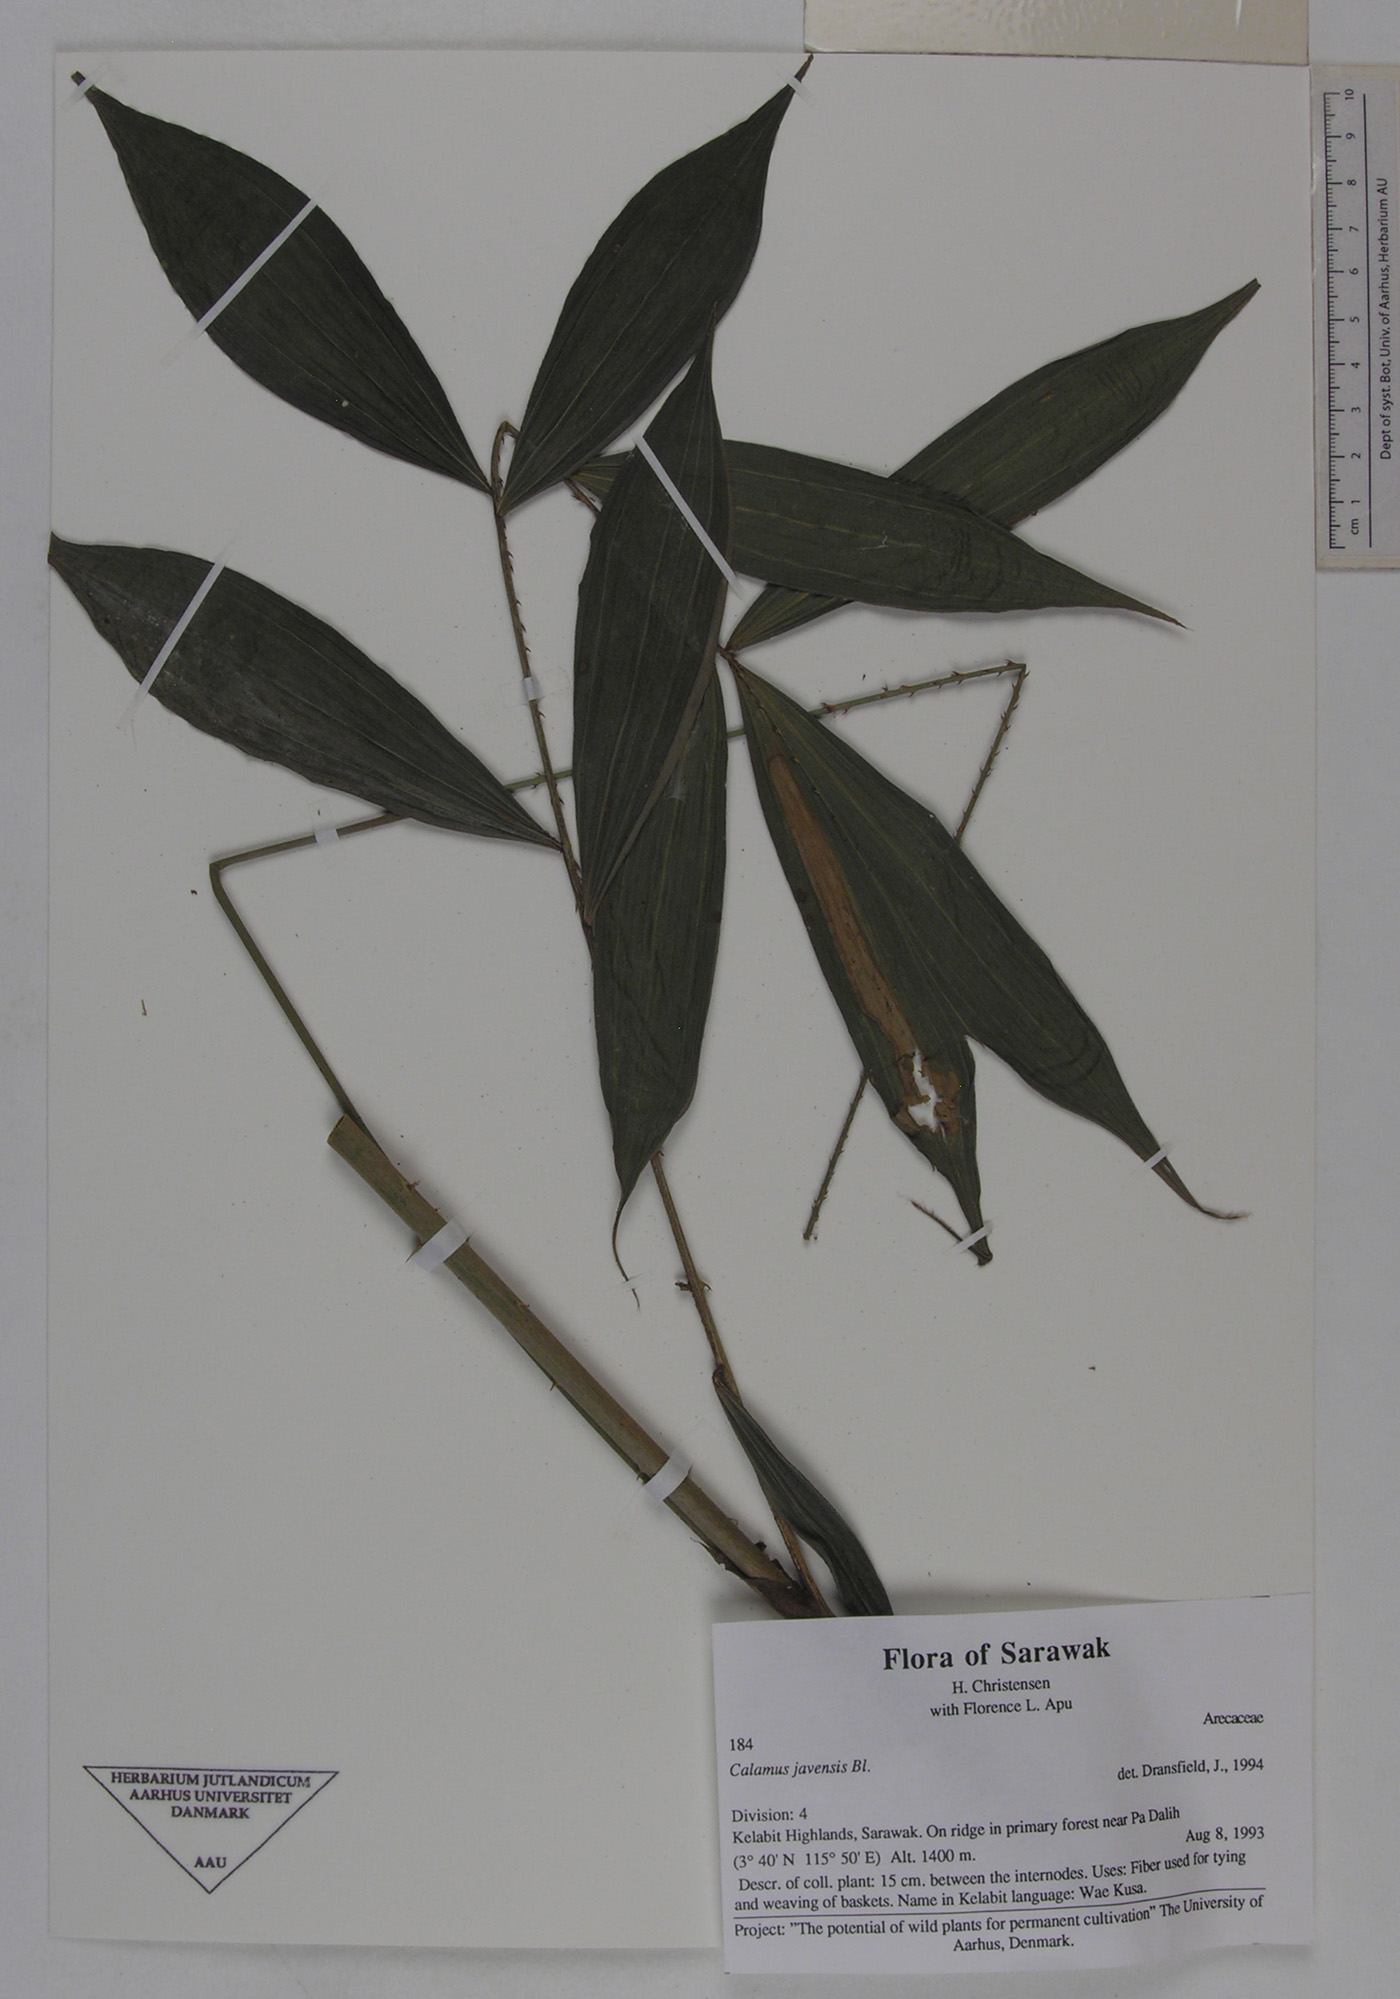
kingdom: Plantae
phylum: Tracheophyta
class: Liliopsida
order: Arecales
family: Arecaceae
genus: Calamus
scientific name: Calamus javensis
